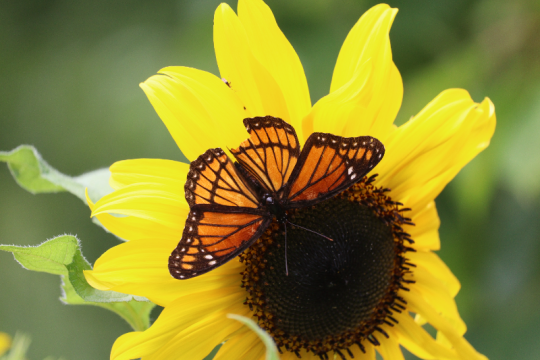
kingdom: Animalia
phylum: Arthropoda
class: Insecta
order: Lepidoptera
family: Nymphalidae
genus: Limenitis
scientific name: Limenitis archippus
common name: Viceroy
